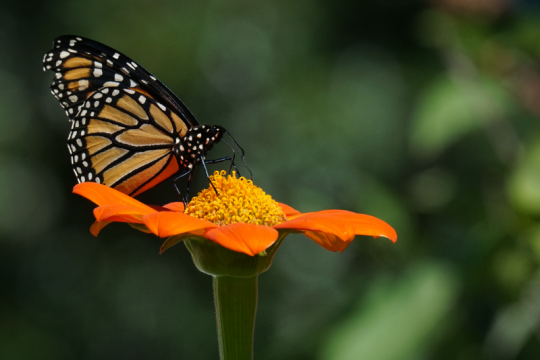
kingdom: Animalia
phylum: Arthropoda
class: Insecta
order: Lepidoptera
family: Nymphalidae
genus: Danaus
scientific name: Danaus plexippus
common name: Monarch
